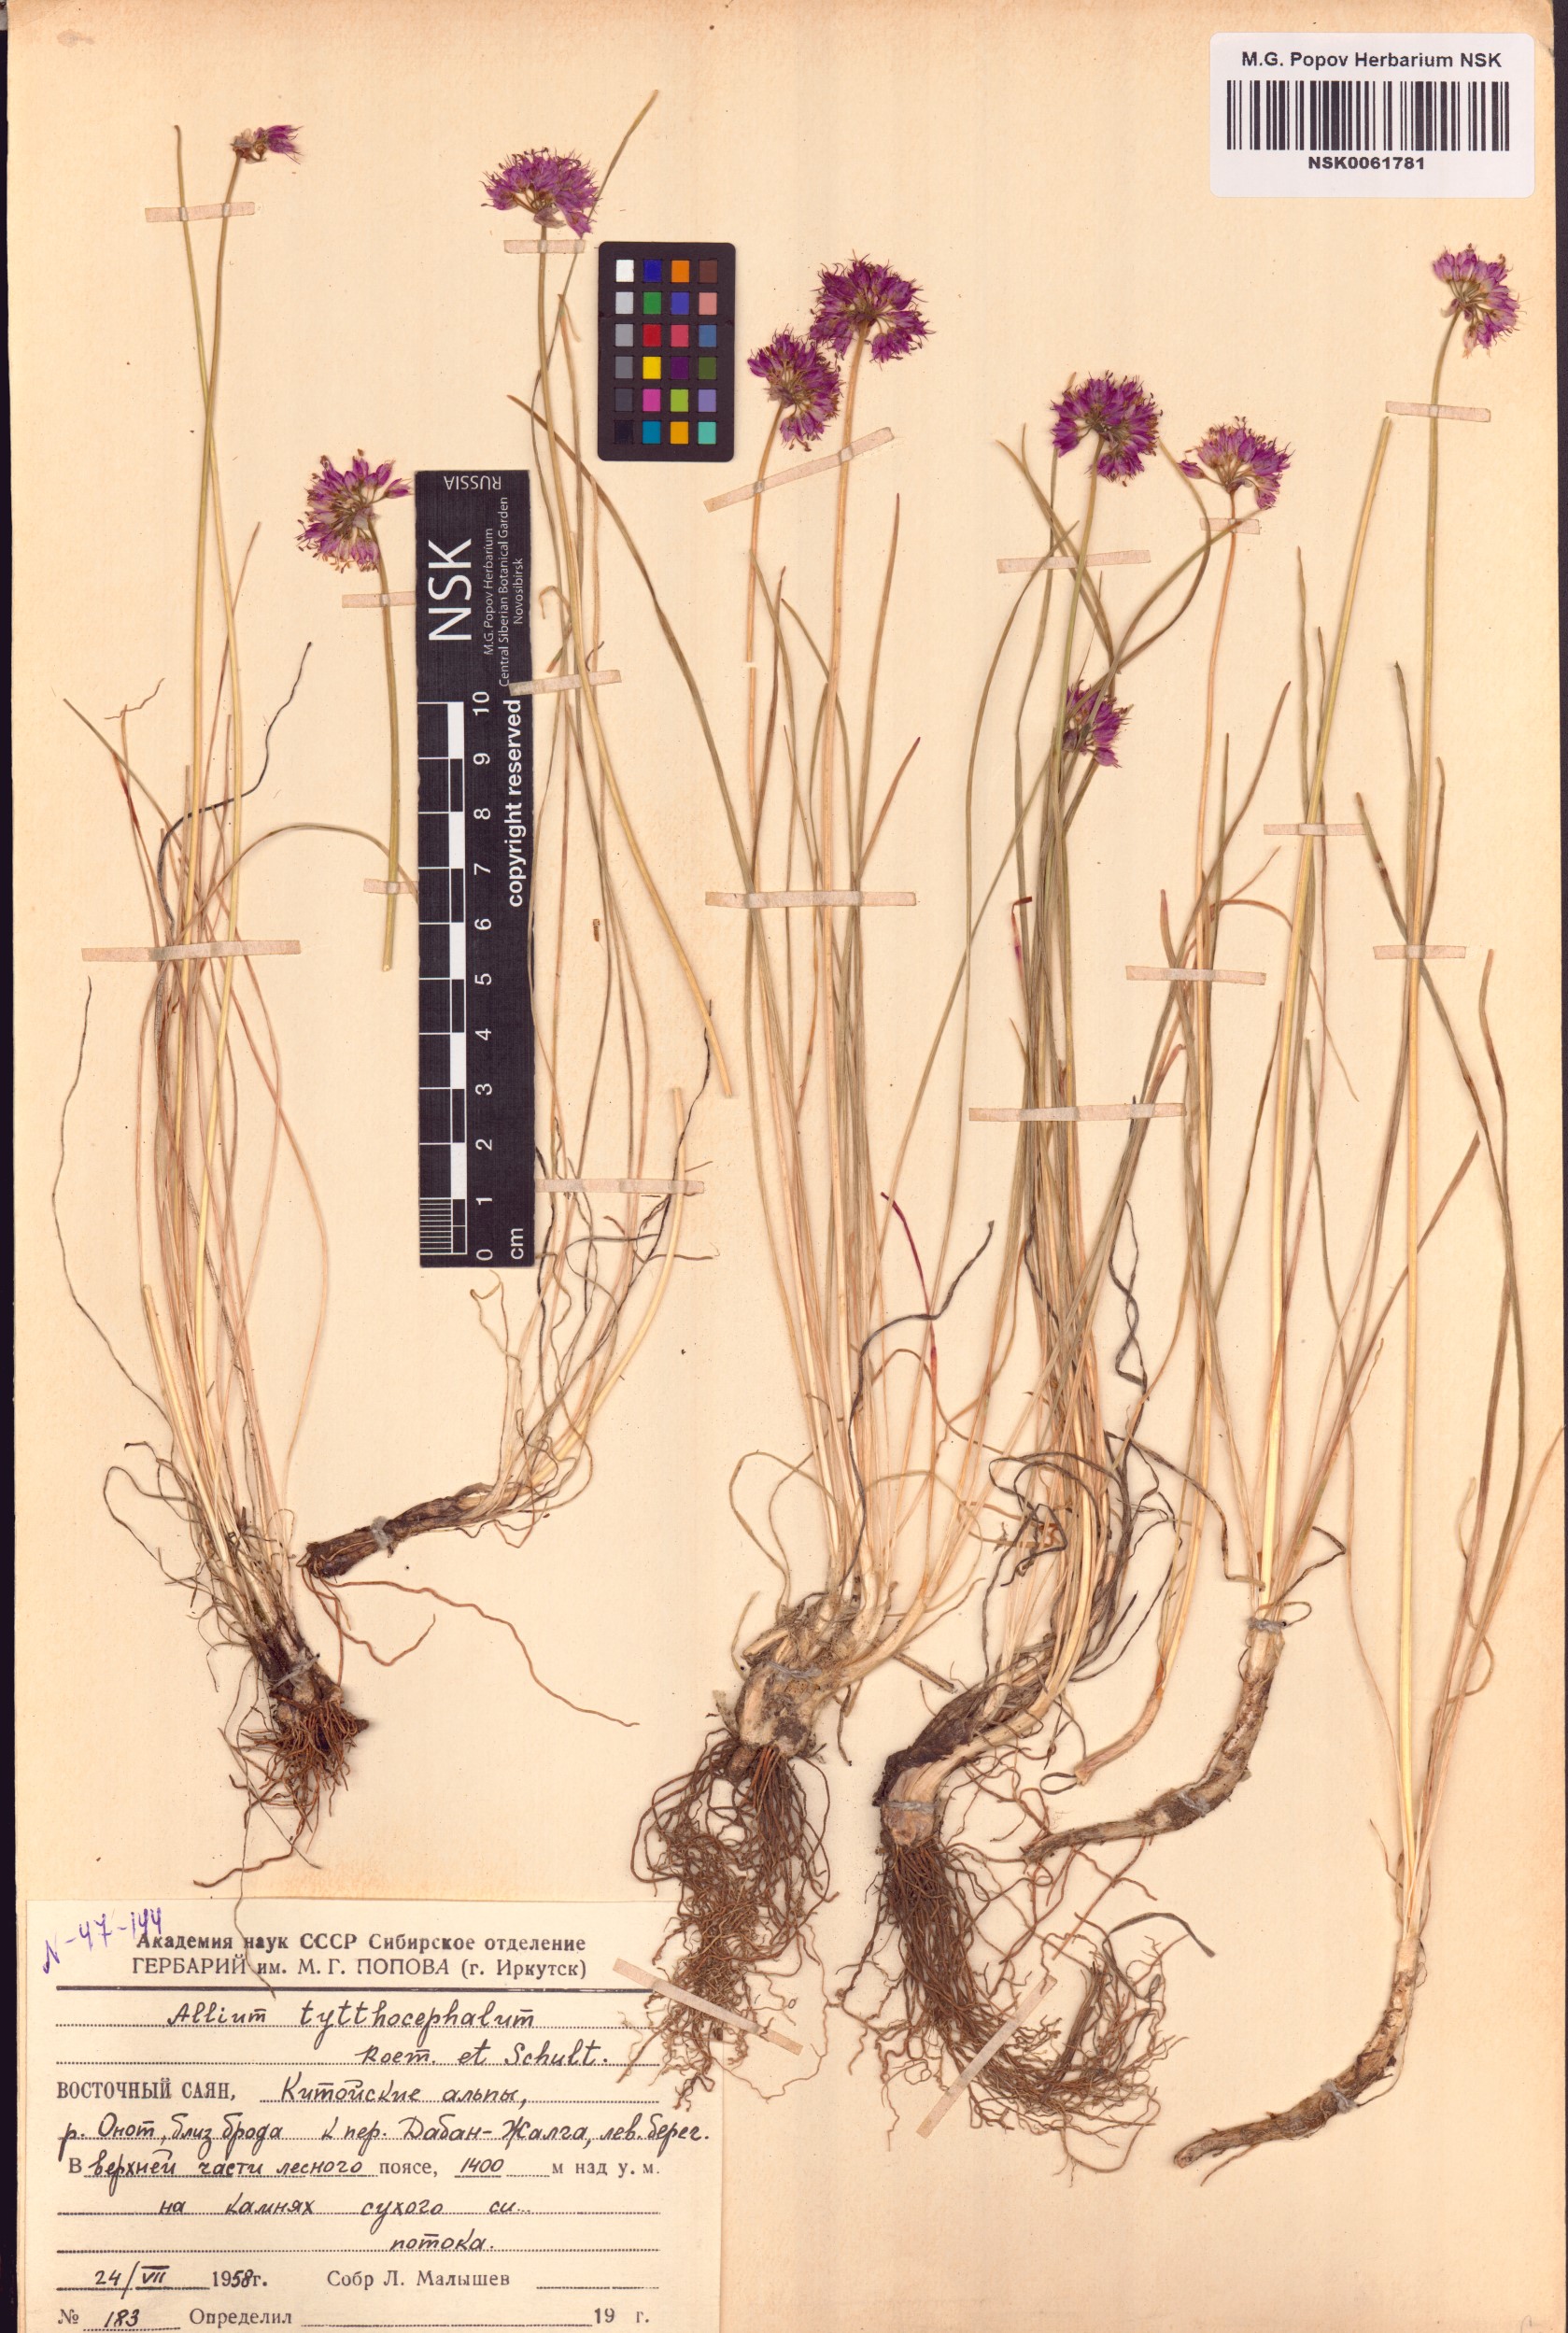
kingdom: Plantae
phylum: Tracheophyta
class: Liliopsida
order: Asparagales
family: Amaryllidaceae
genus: Allium
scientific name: Allium tytthocephalum
